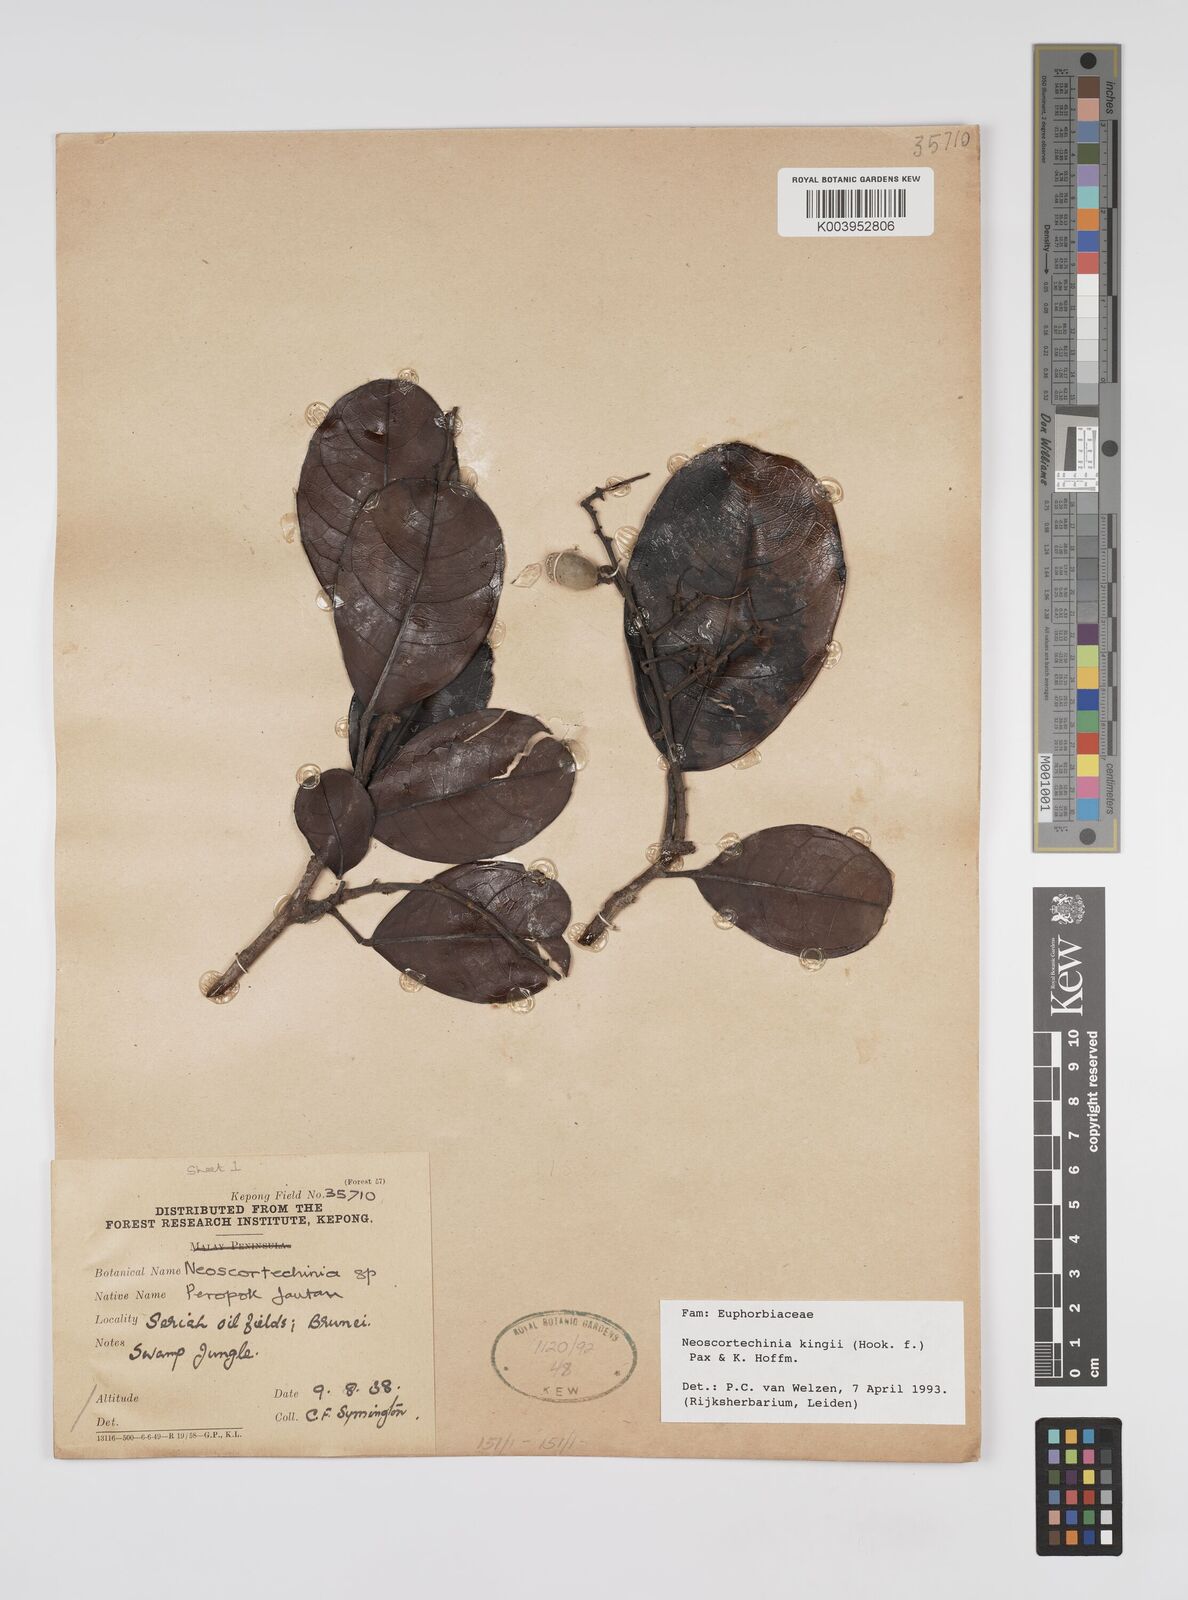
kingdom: Plantae
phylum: Tracheophyta
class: Magnoliopsida
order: Malpighiales
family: Euphorbiaceae
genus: Neoscortechinia
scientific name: Neoscortechinia kingii
